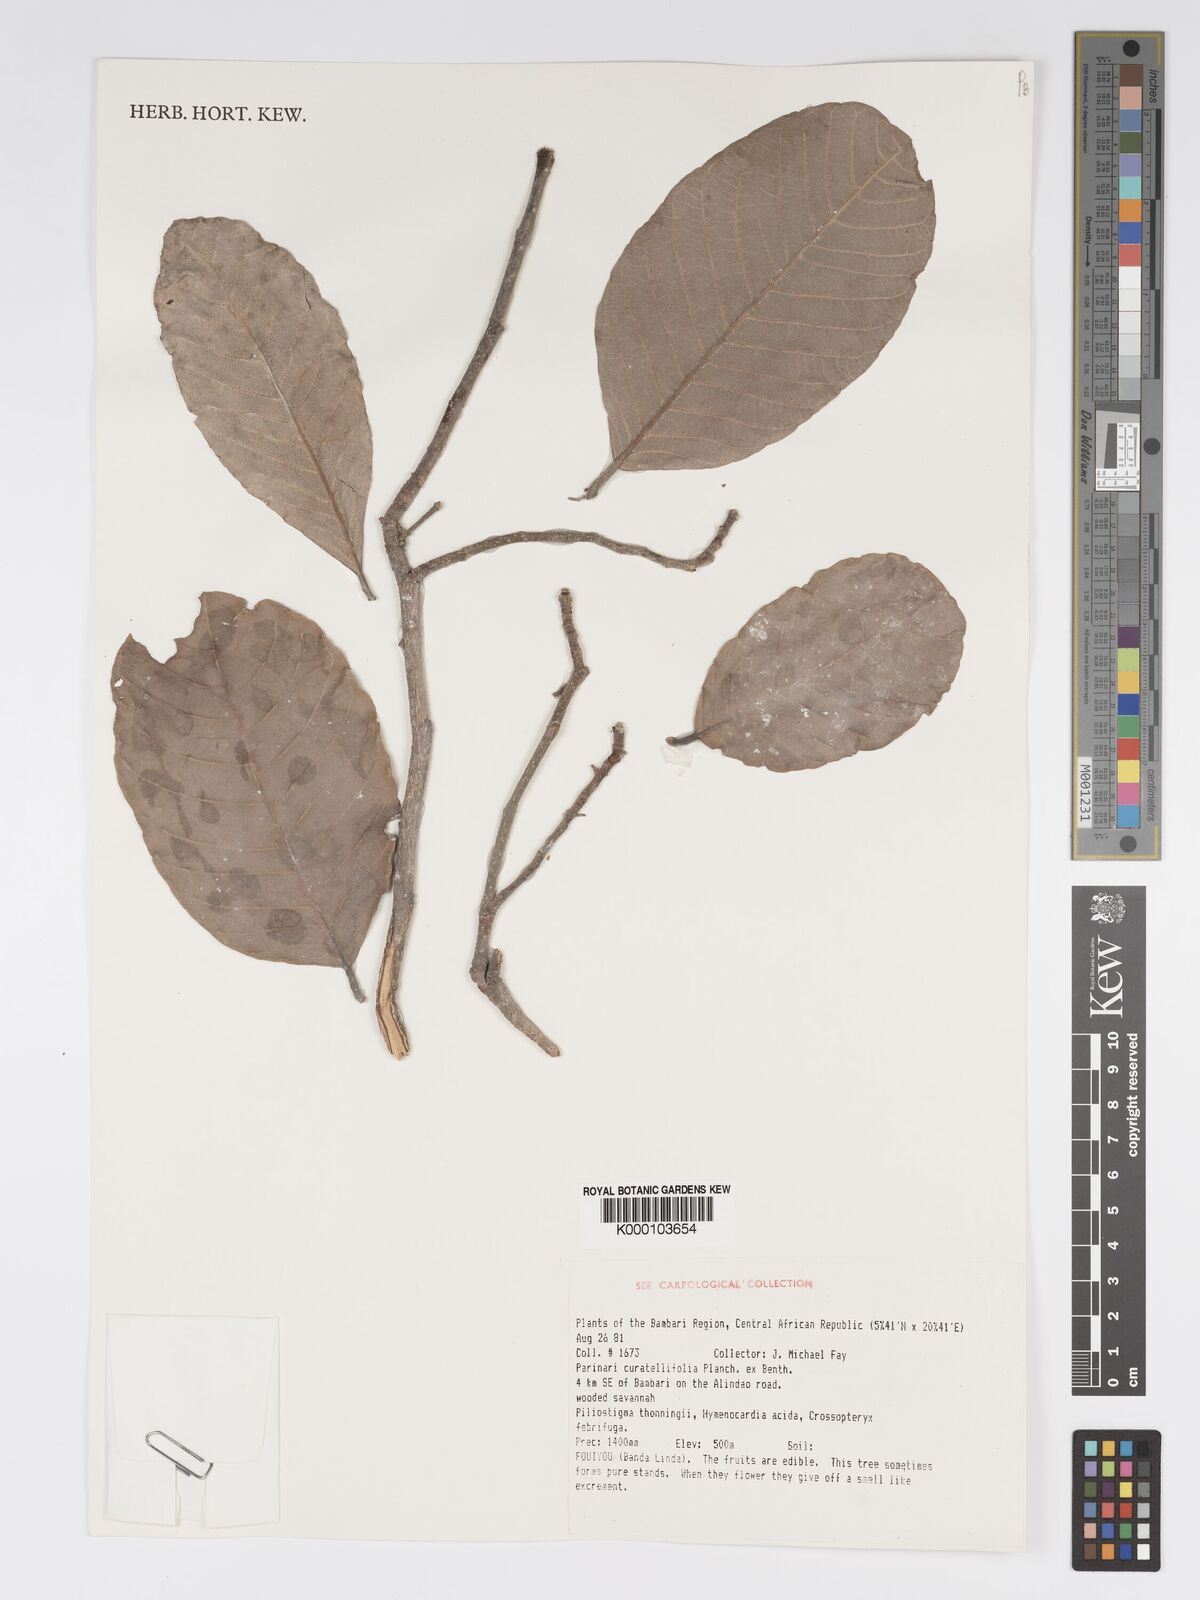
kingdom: Plantae
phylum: Tracheophyta
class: Magnoliopsida
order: Malpighiales
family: Chrysobalanaceae
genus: Parinari
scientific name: Parinari curatellifolia
